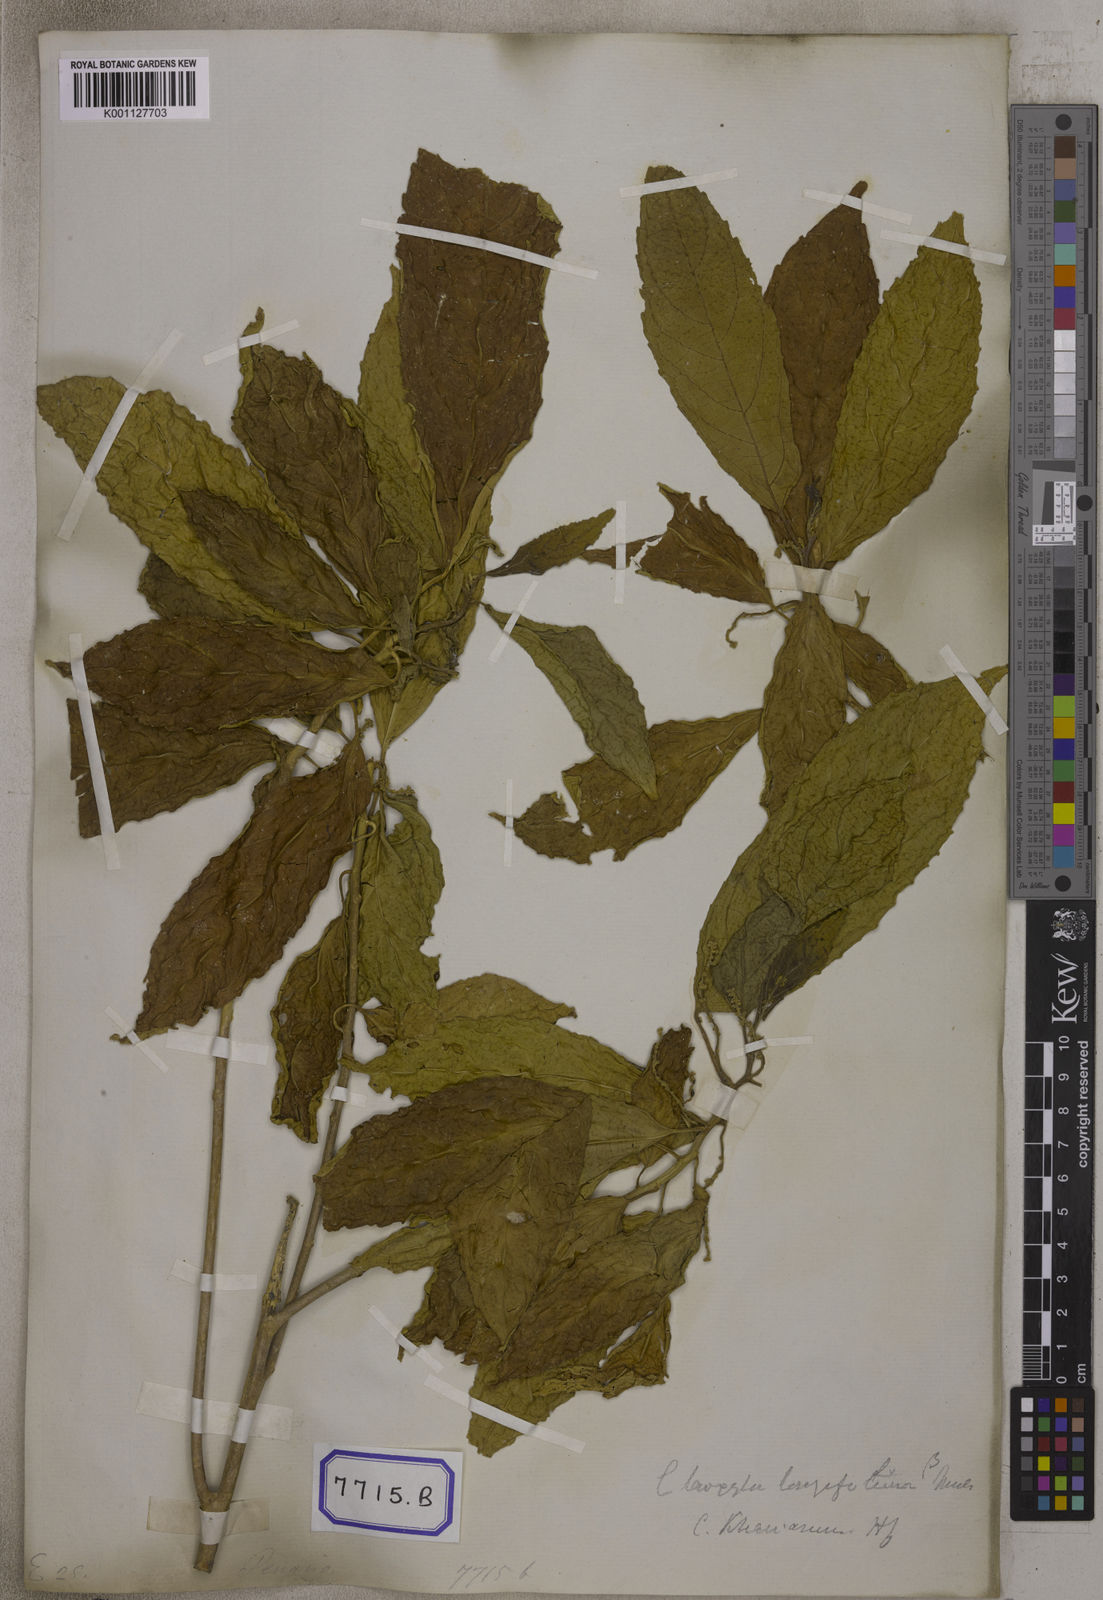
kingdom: Plantae
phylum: Tracheophyta
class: Magnoliopsida
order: Malpighiales
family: Euphorbiaceae
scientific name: Euphorbiaceae
